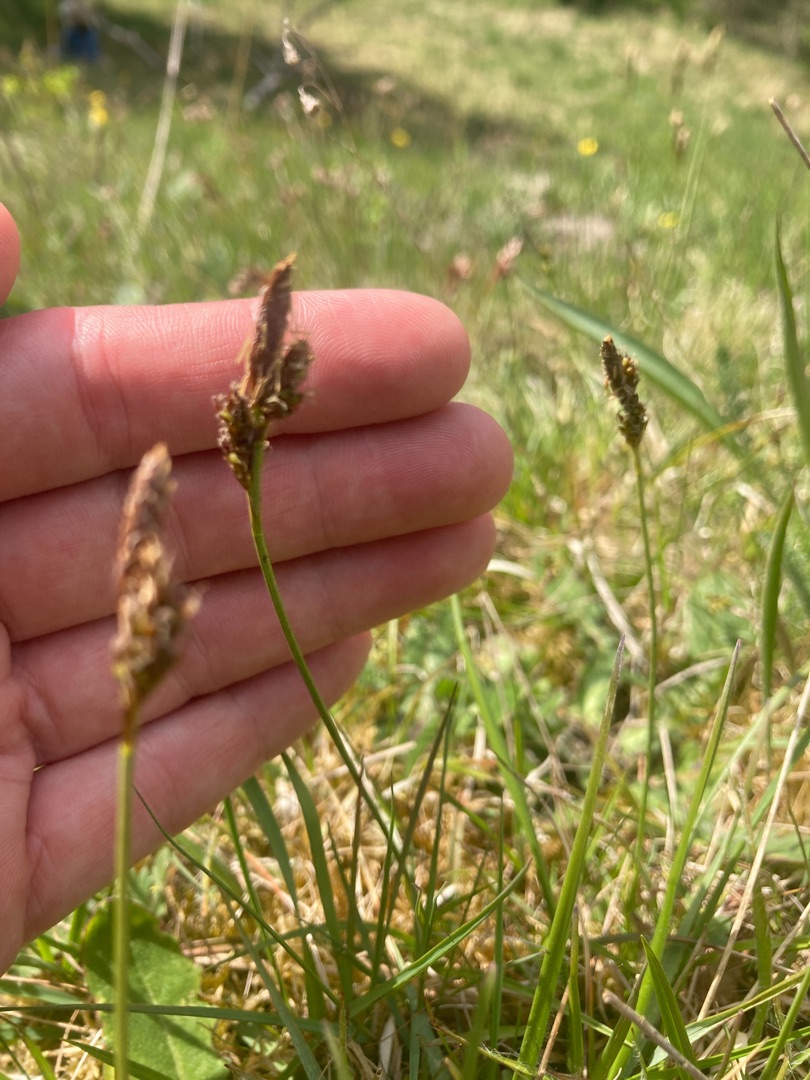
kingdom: Plantae
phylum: Tracheophyta
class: Liliopsida
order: Poales
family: Cyperaceae
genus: Carex
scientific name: Carex caryophyllea
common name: Vår-star
